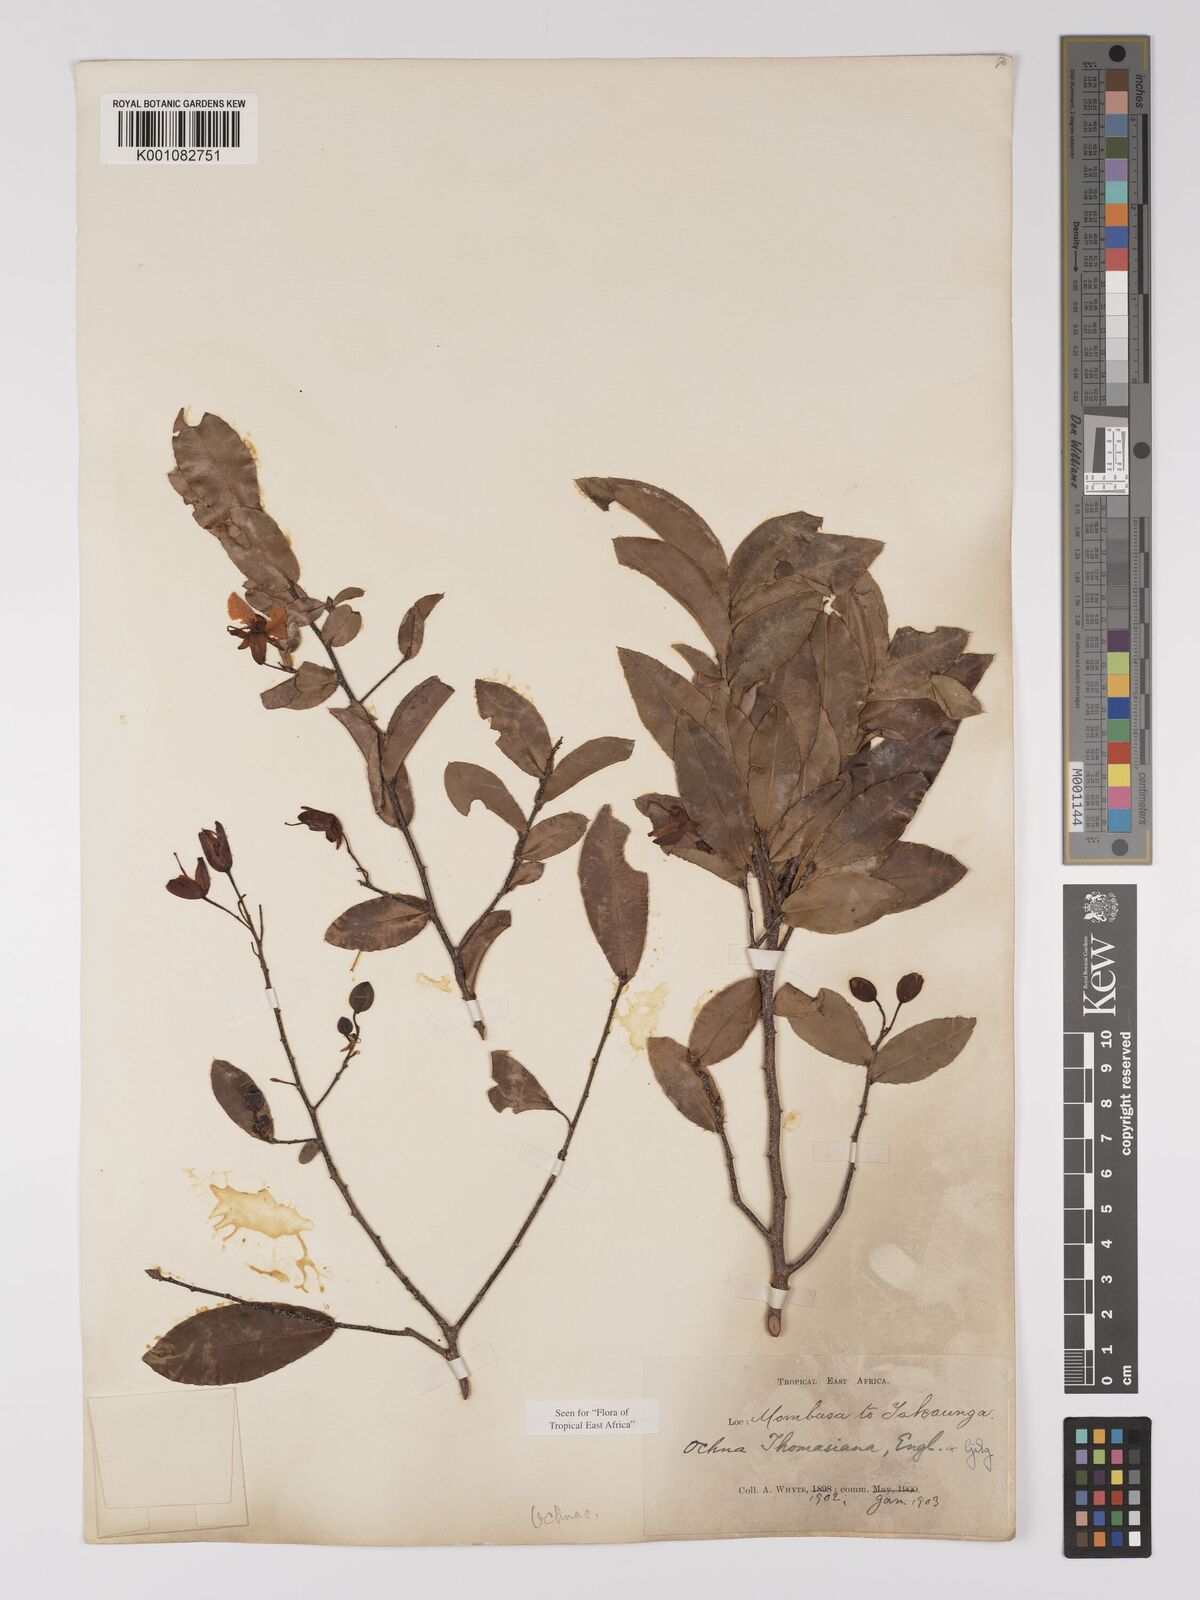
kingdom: Plantae
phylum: Tracheophyta
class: Magnoliopsida
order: Malpighiales
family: Ochnaceae
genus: Ochna
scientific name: Ochna thomasiana
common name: Thomas' bird's-eye bush
